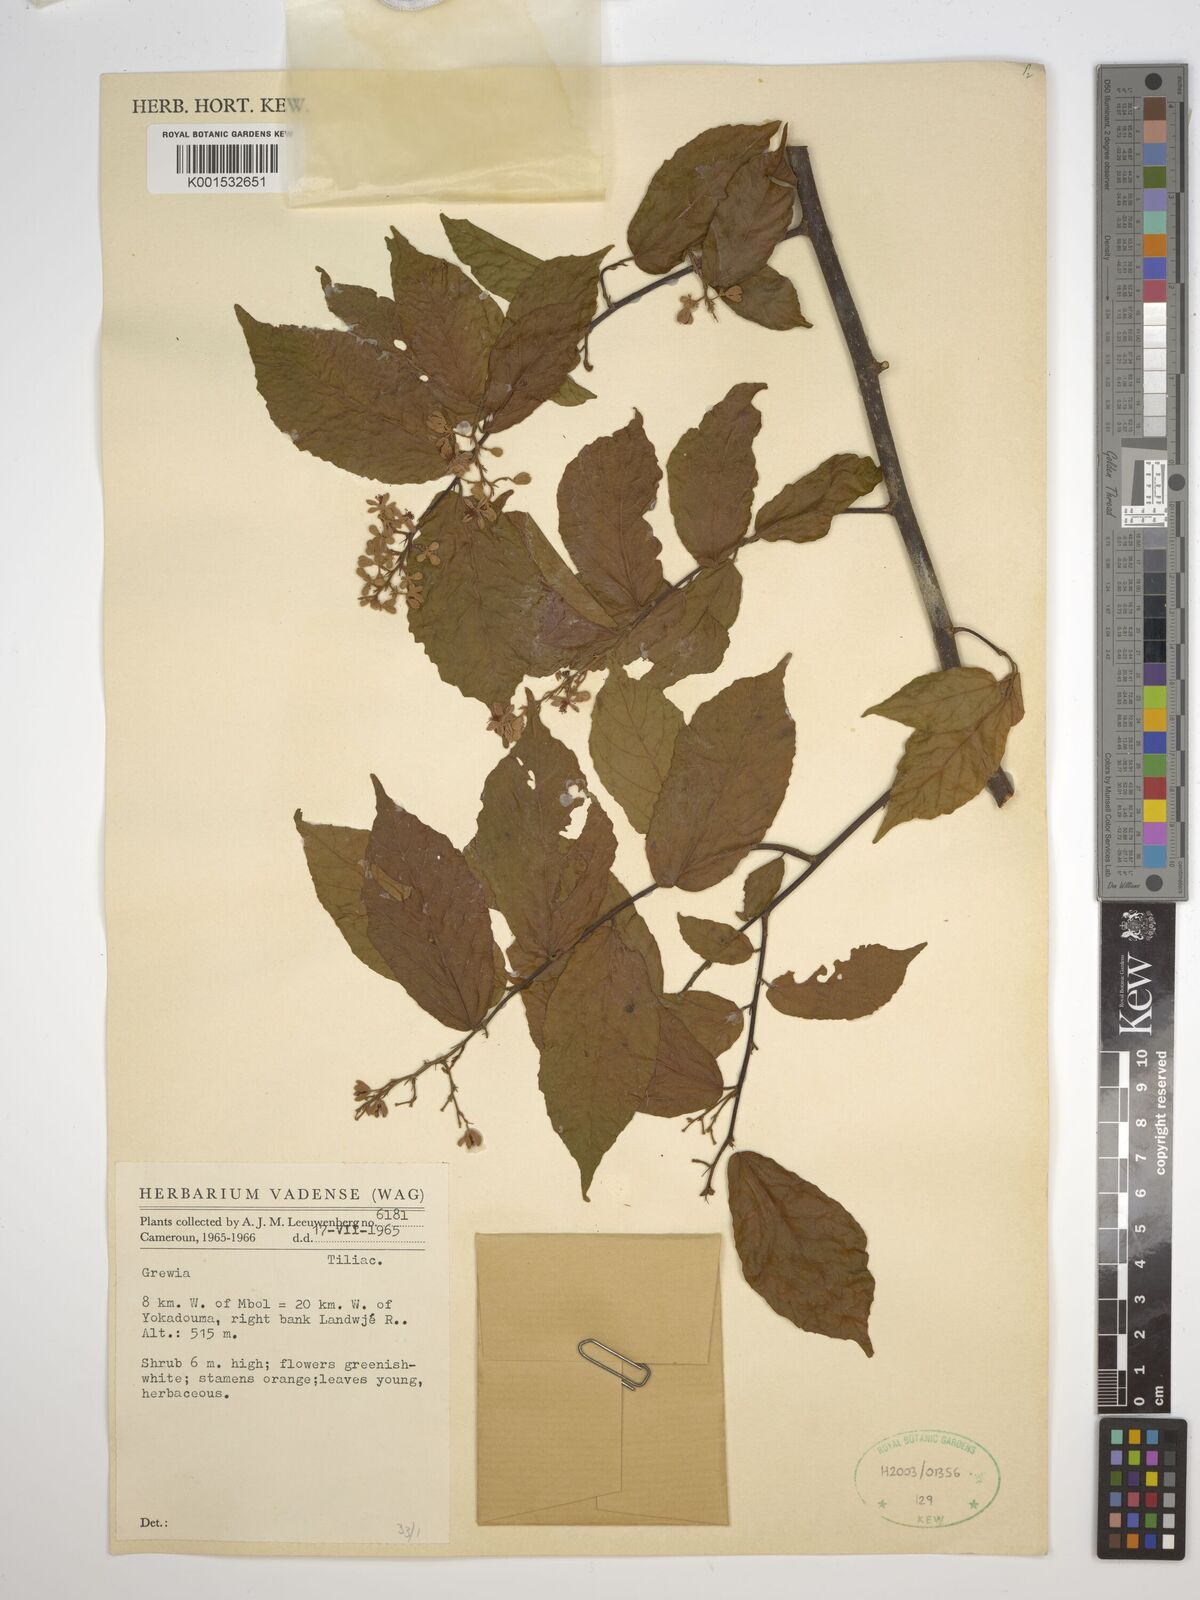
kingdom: Plantae
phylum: Tracheophyta
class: Magnoliopsida
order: Malvales
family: Malvaceae
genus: Grewia
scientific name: Grewia
